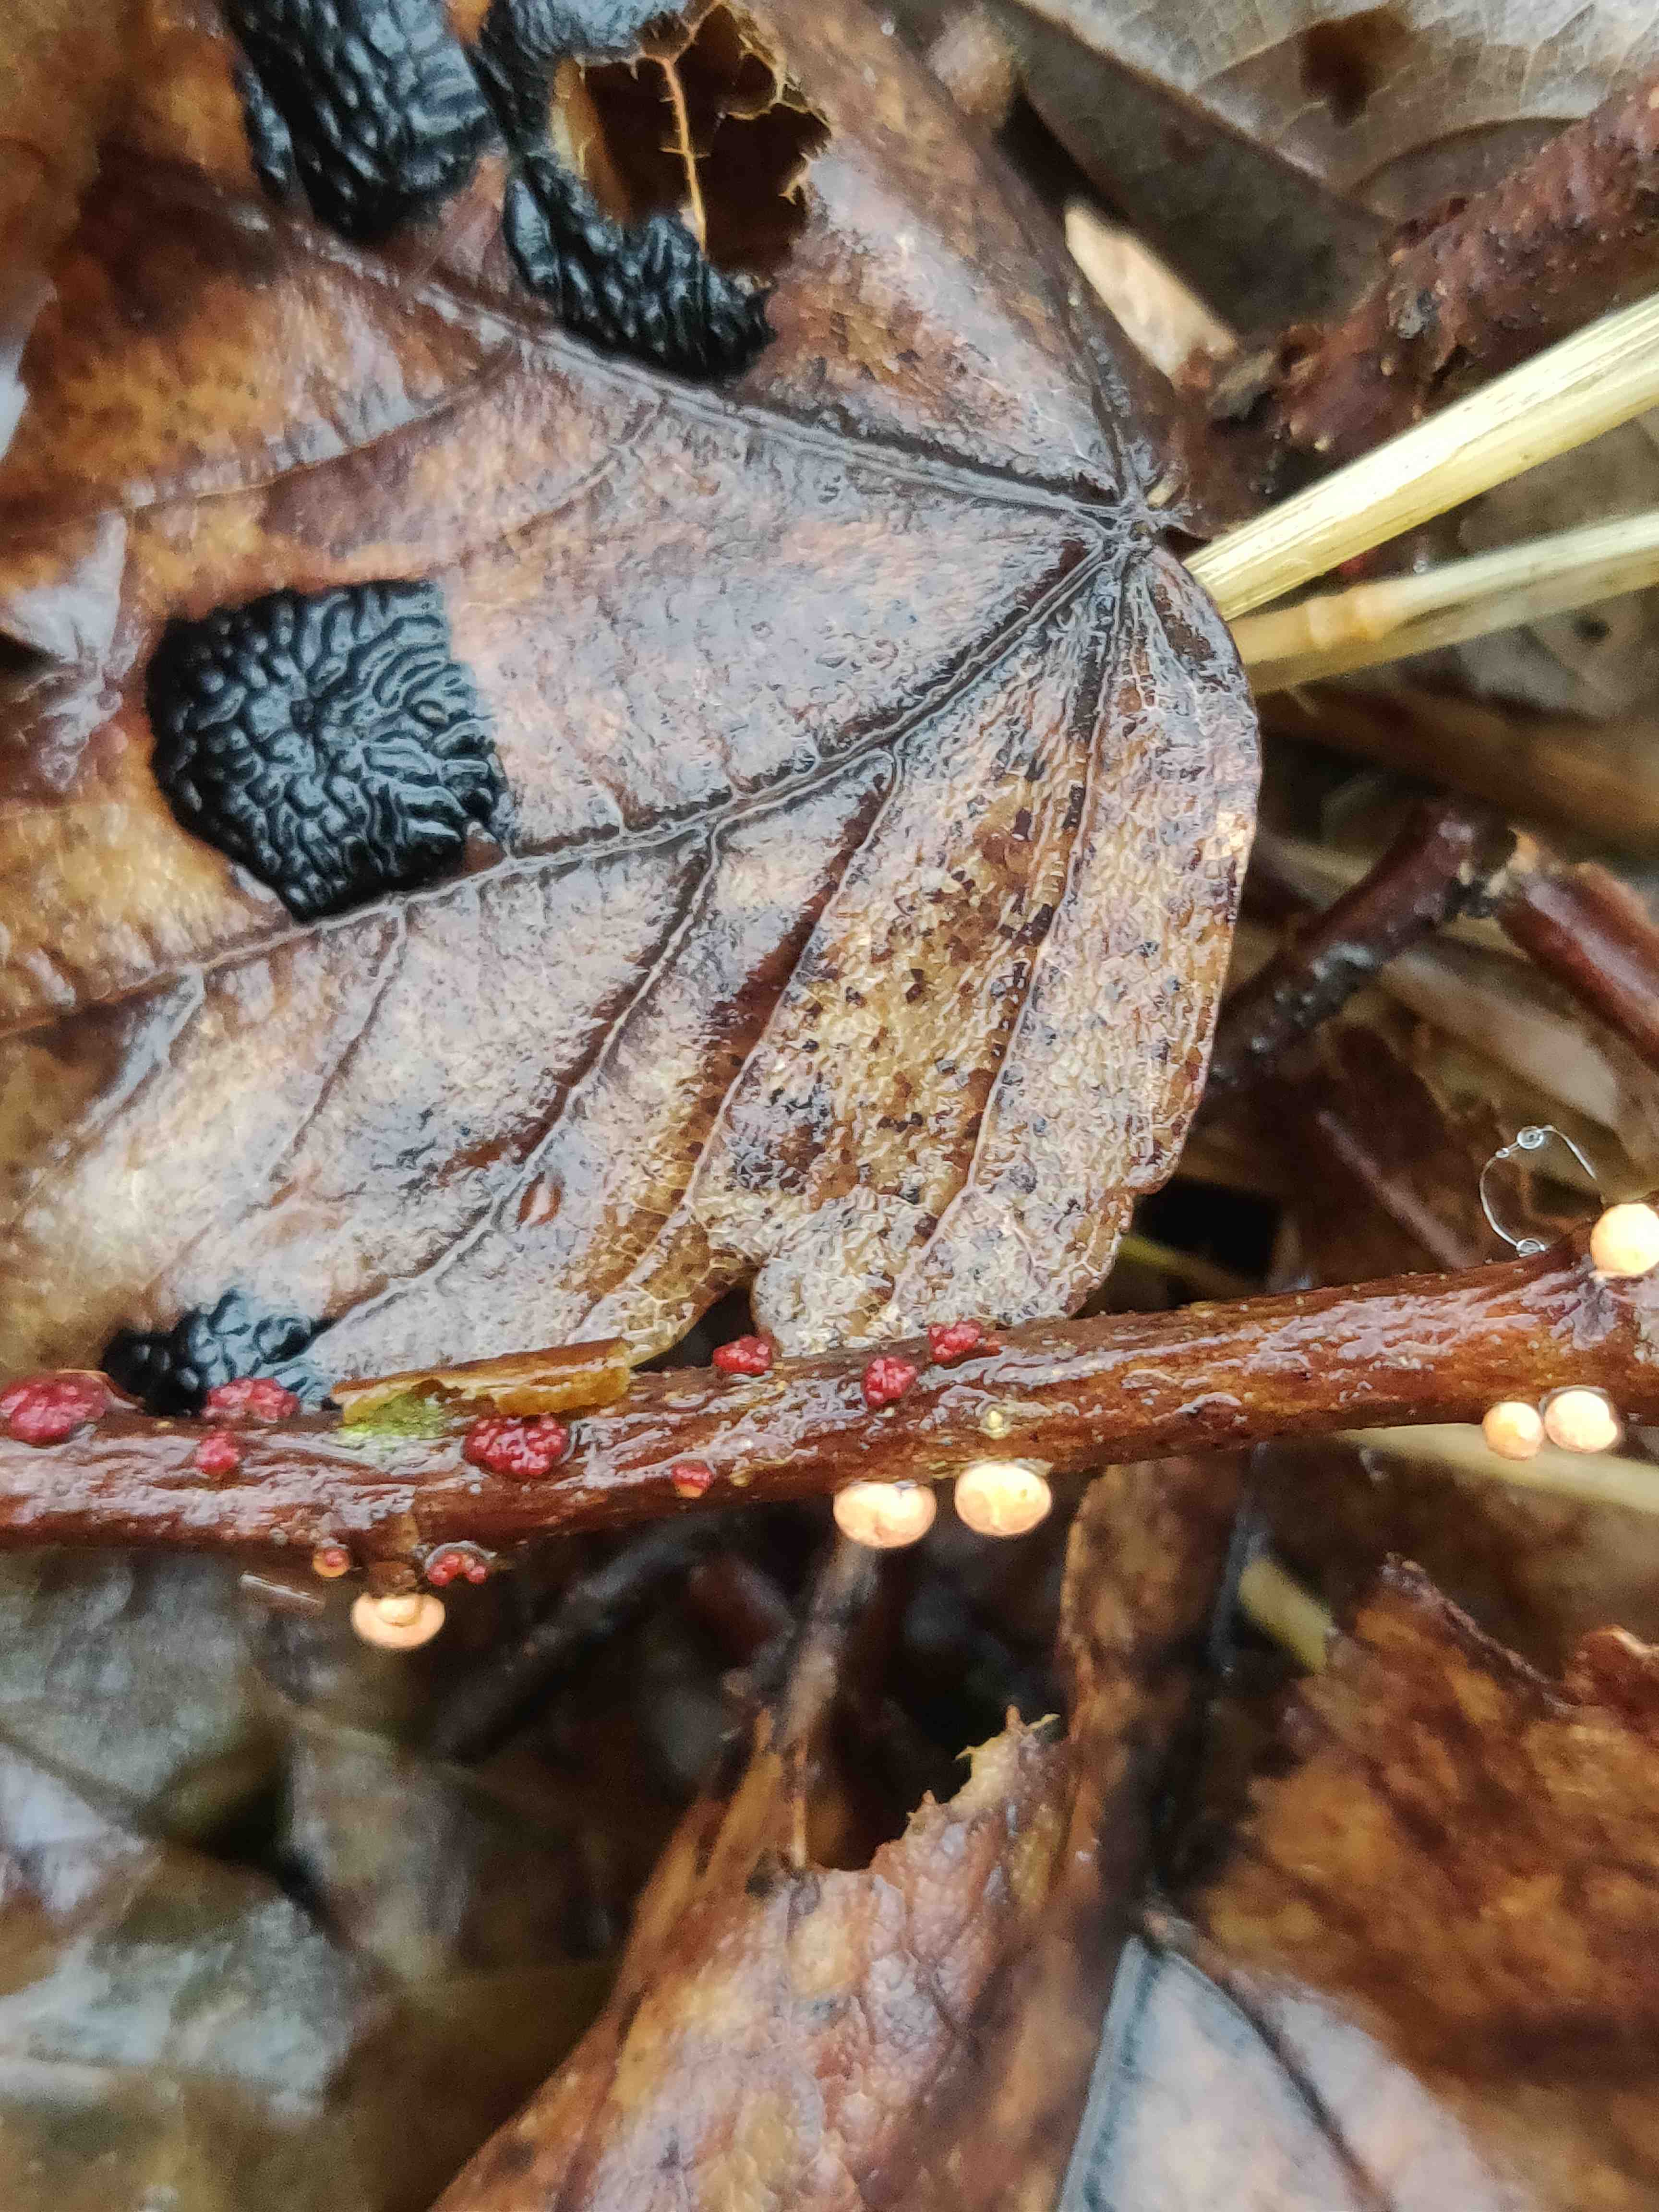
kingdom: Fungi
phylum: Ascomycota
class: Sordariomycetes
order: Hypocreales
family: Nectriaceae
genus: Nectria
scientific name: Nectria cinnabarina
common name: almindelig cinnobersvamp
